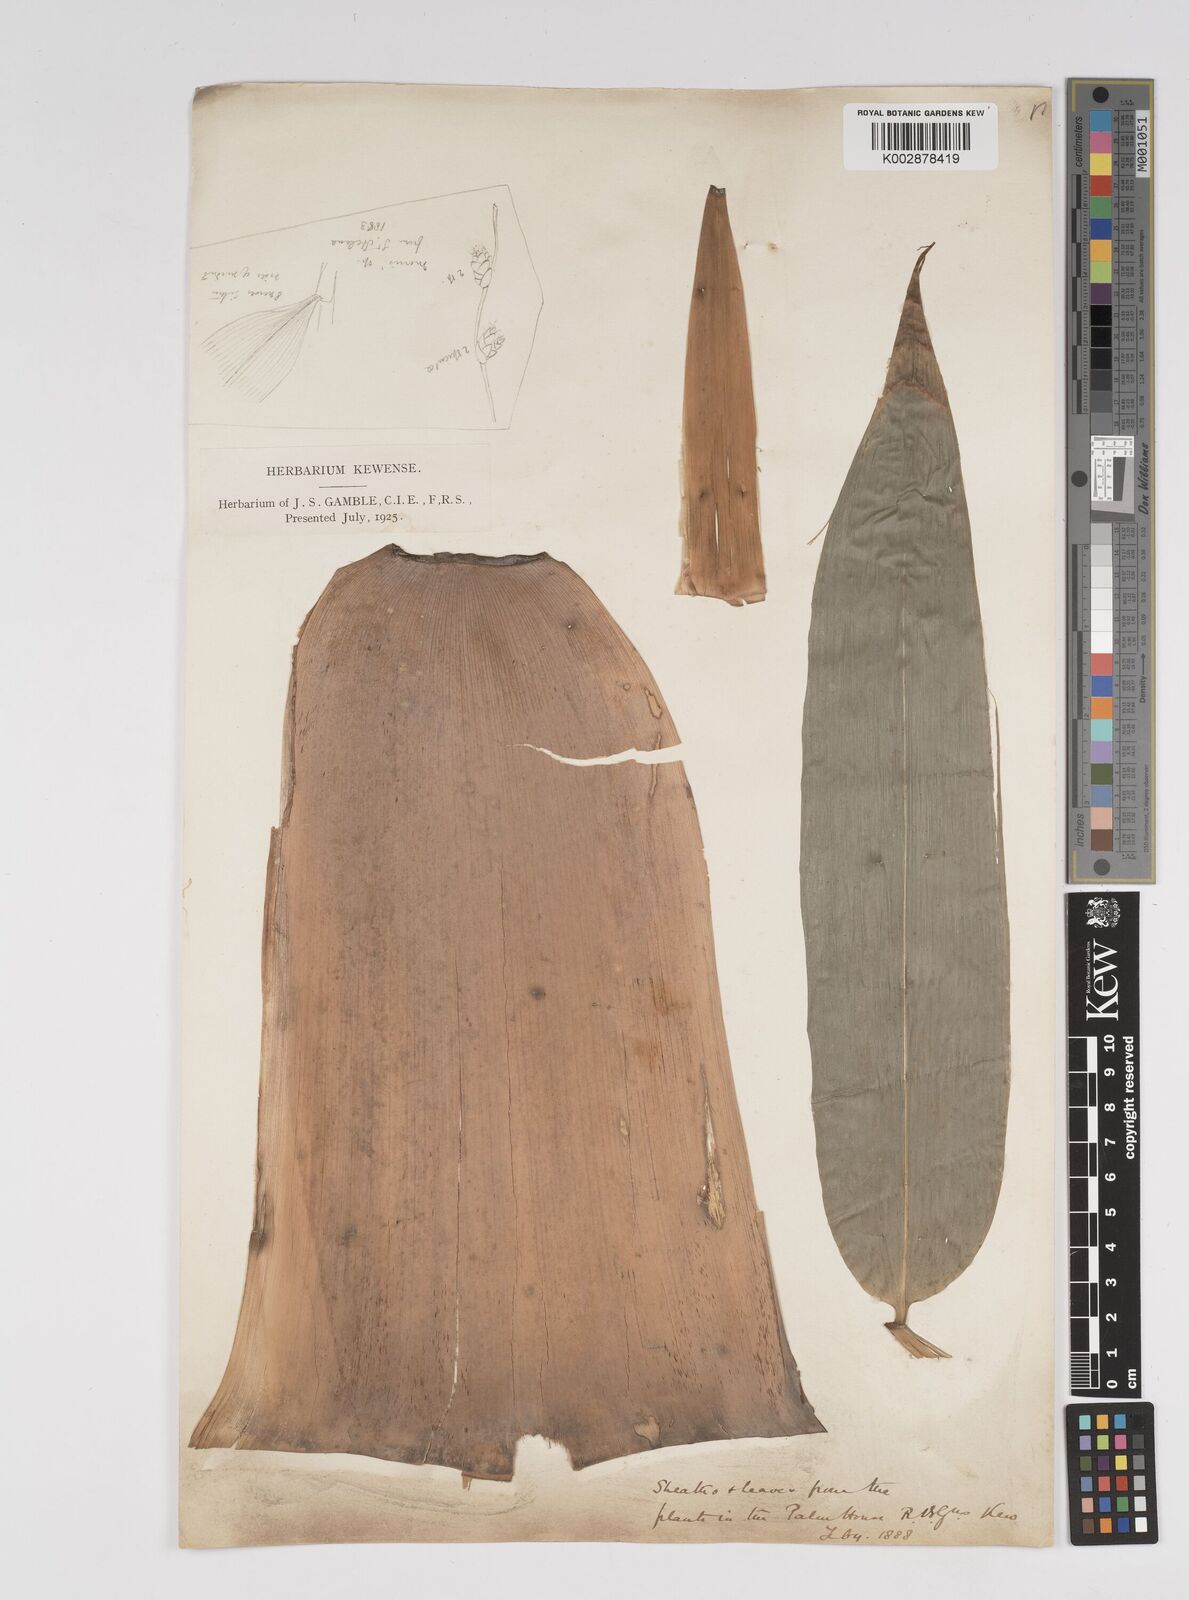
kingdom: Plantae
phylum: Tracheophyta
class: Liliopsida
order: Poales
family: Poaceae
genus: Dendrocalamus
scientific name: Dendrocalamus giganteus
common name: Giant bamboo
